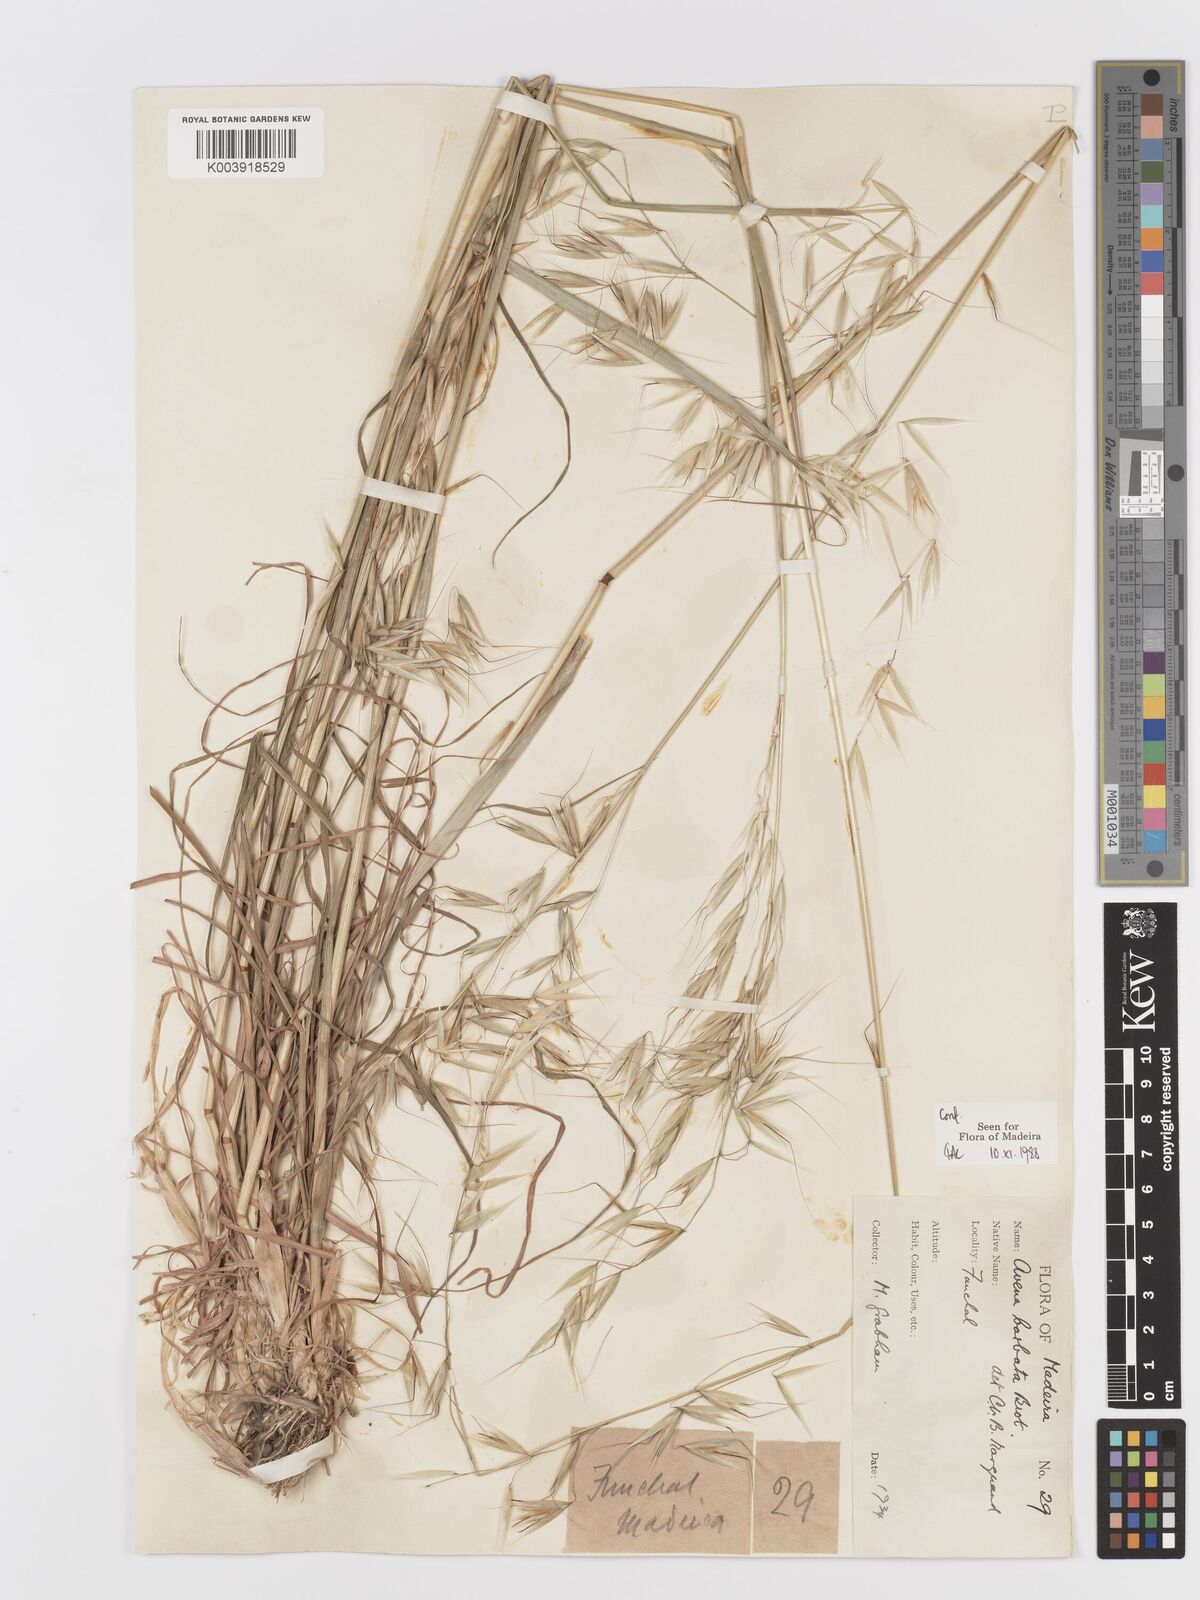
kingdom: Plantae
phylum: Tracheophyta
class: Liliopsida
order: Poales
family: Poaceae
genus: Avena
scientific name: Avena
